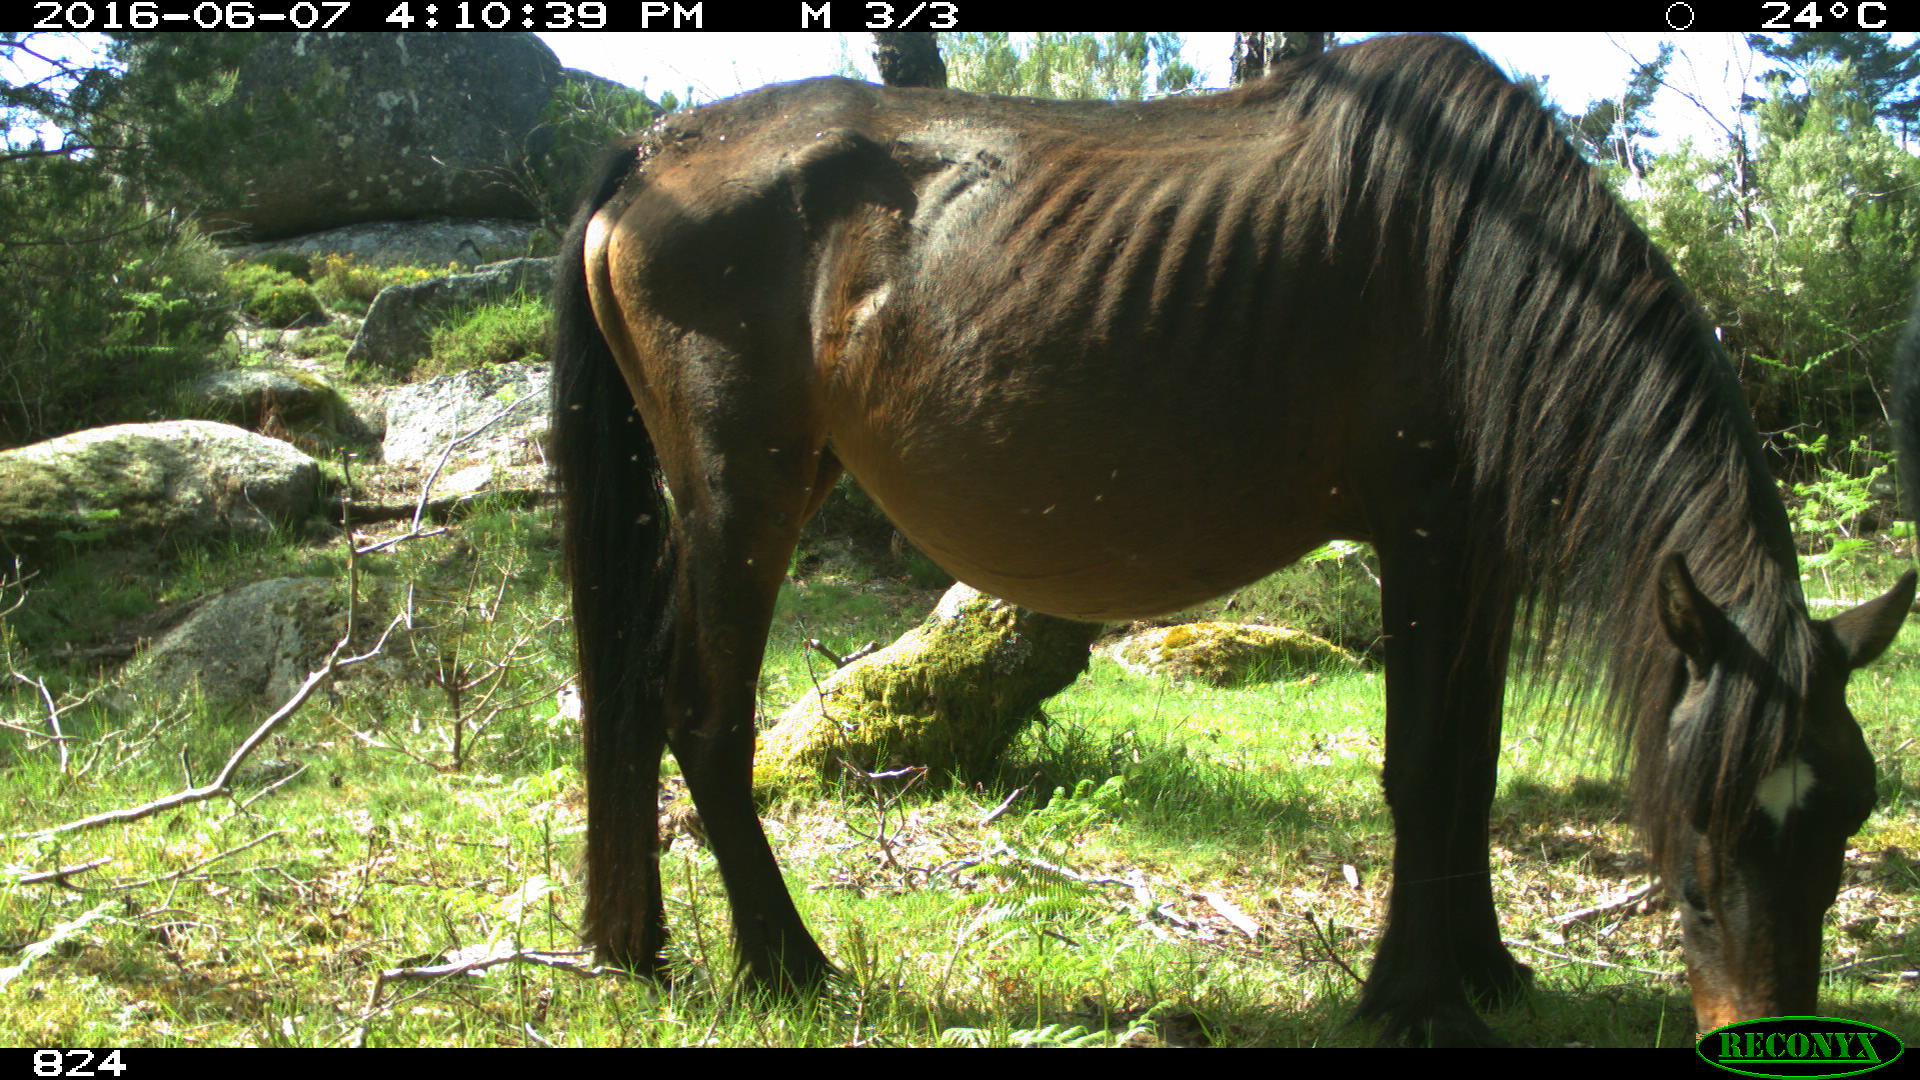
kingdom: Animalia
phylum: Chordata
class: Mammalia
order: Perissodactyla
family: Equidae
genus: Equus
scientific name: Equus caballus
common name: Horse
